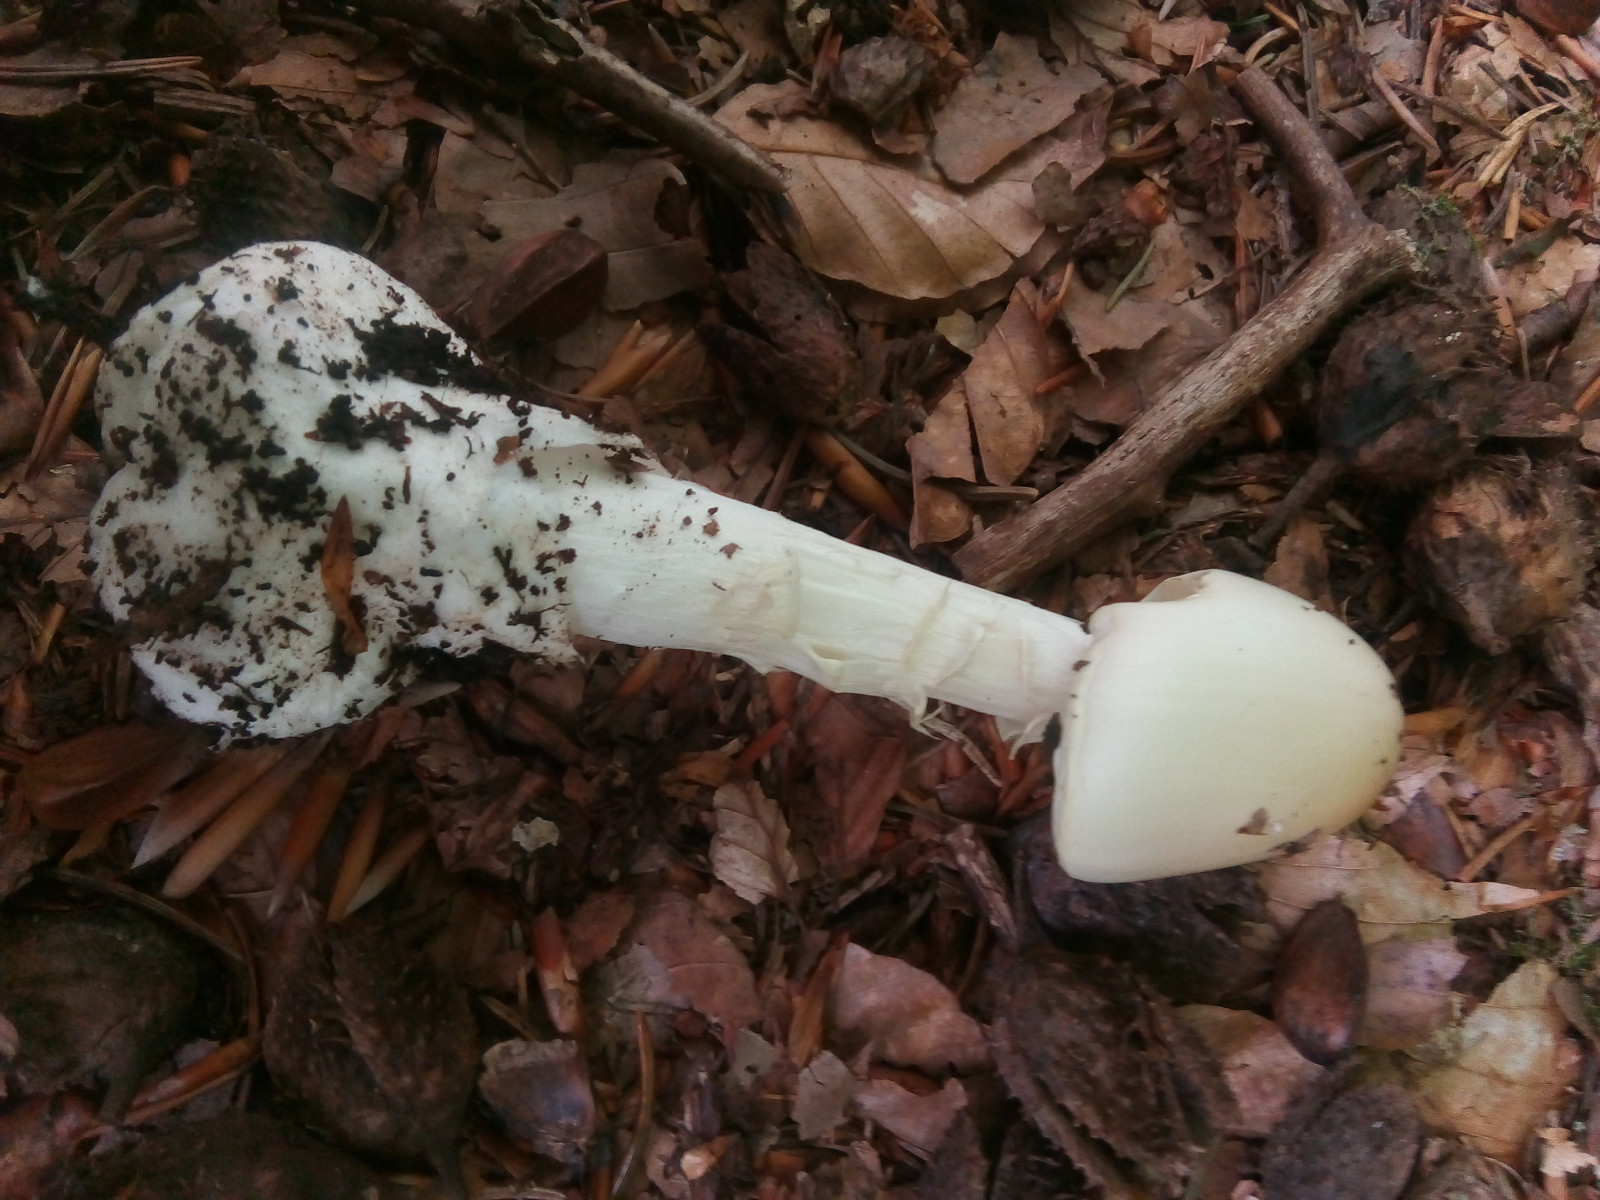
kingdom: Fungi
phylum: Basidiomycota
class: Agaricomycetes
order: Agaricales
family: Amanitaceae
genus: Amanita
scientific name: Amanita virosa
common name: snehvid fluesvamp
